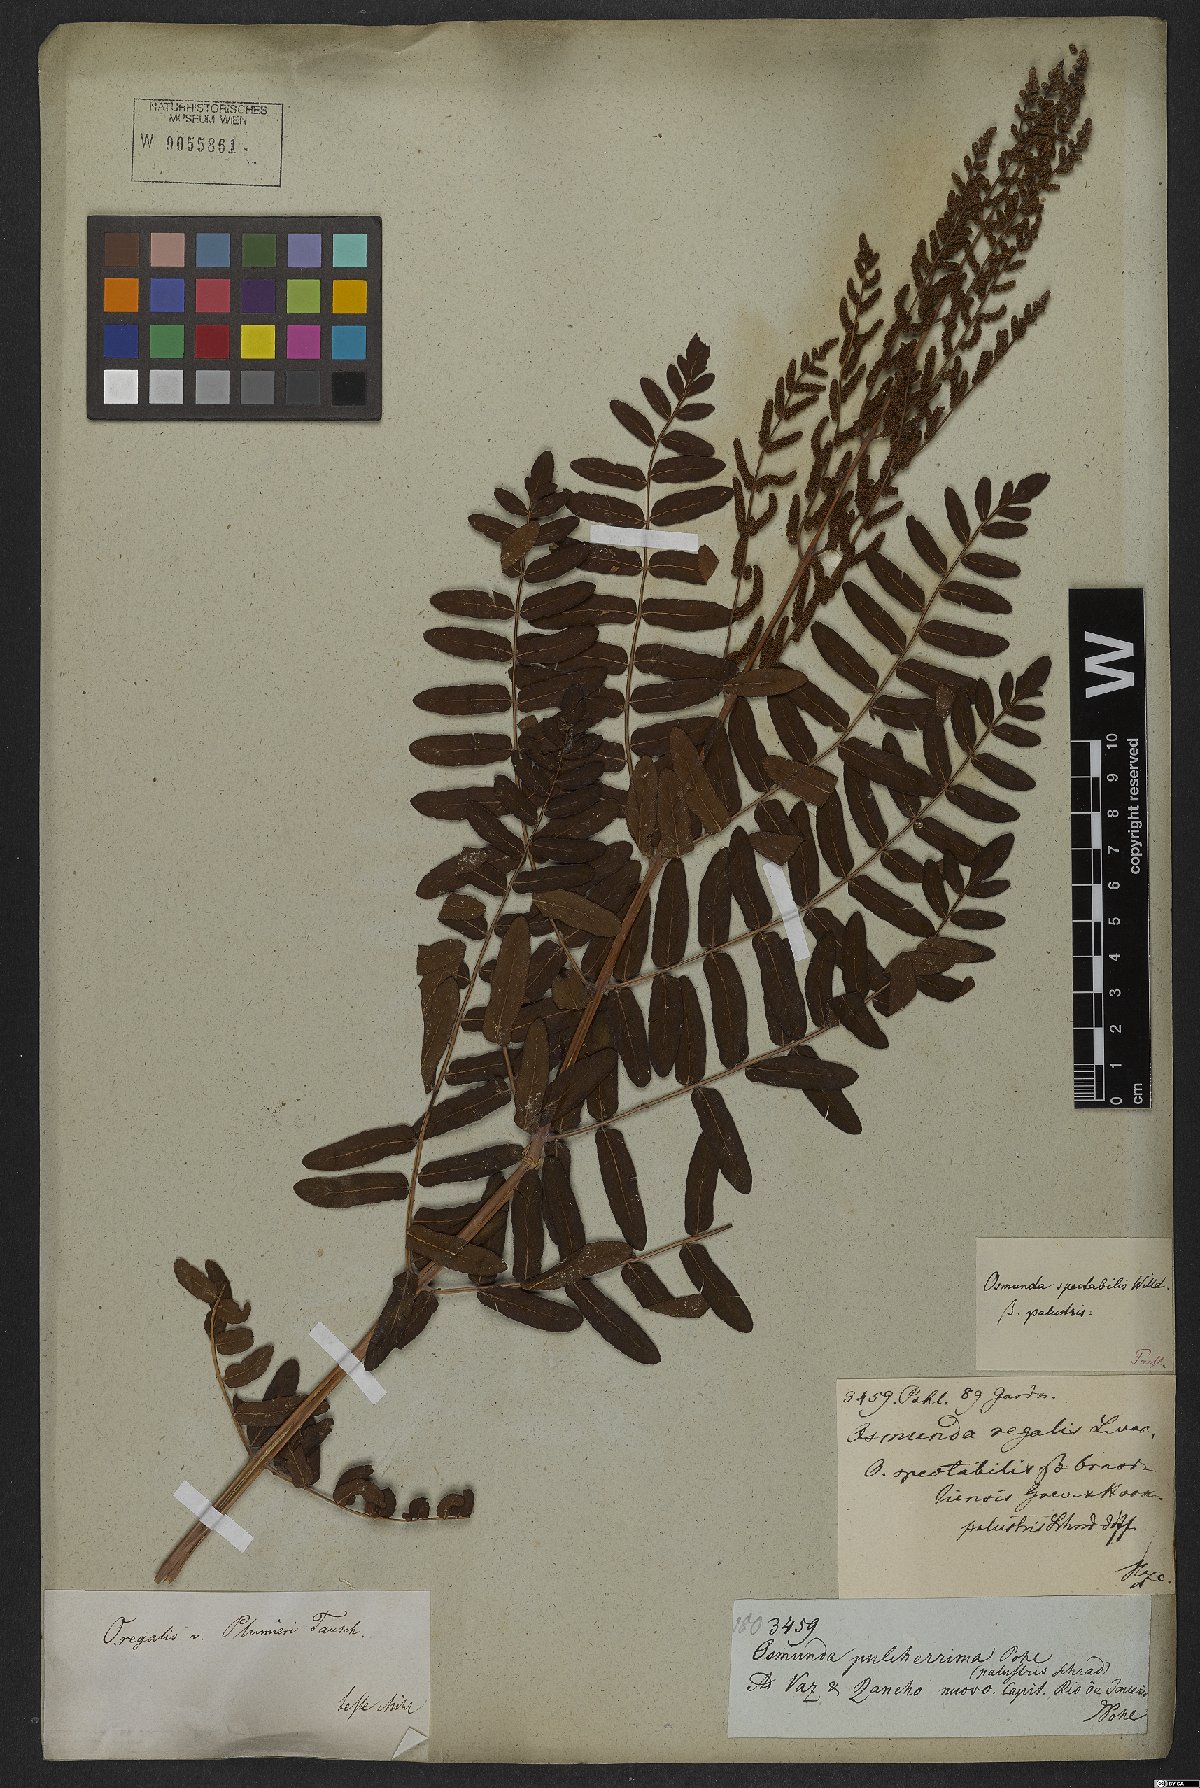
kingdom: Plantae
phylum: Tracheophyta
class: Polypodiopsida
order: Osmundales
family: Osmundaceae
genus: Osmunda
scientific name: Osmunda regalis
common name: Royal fern
